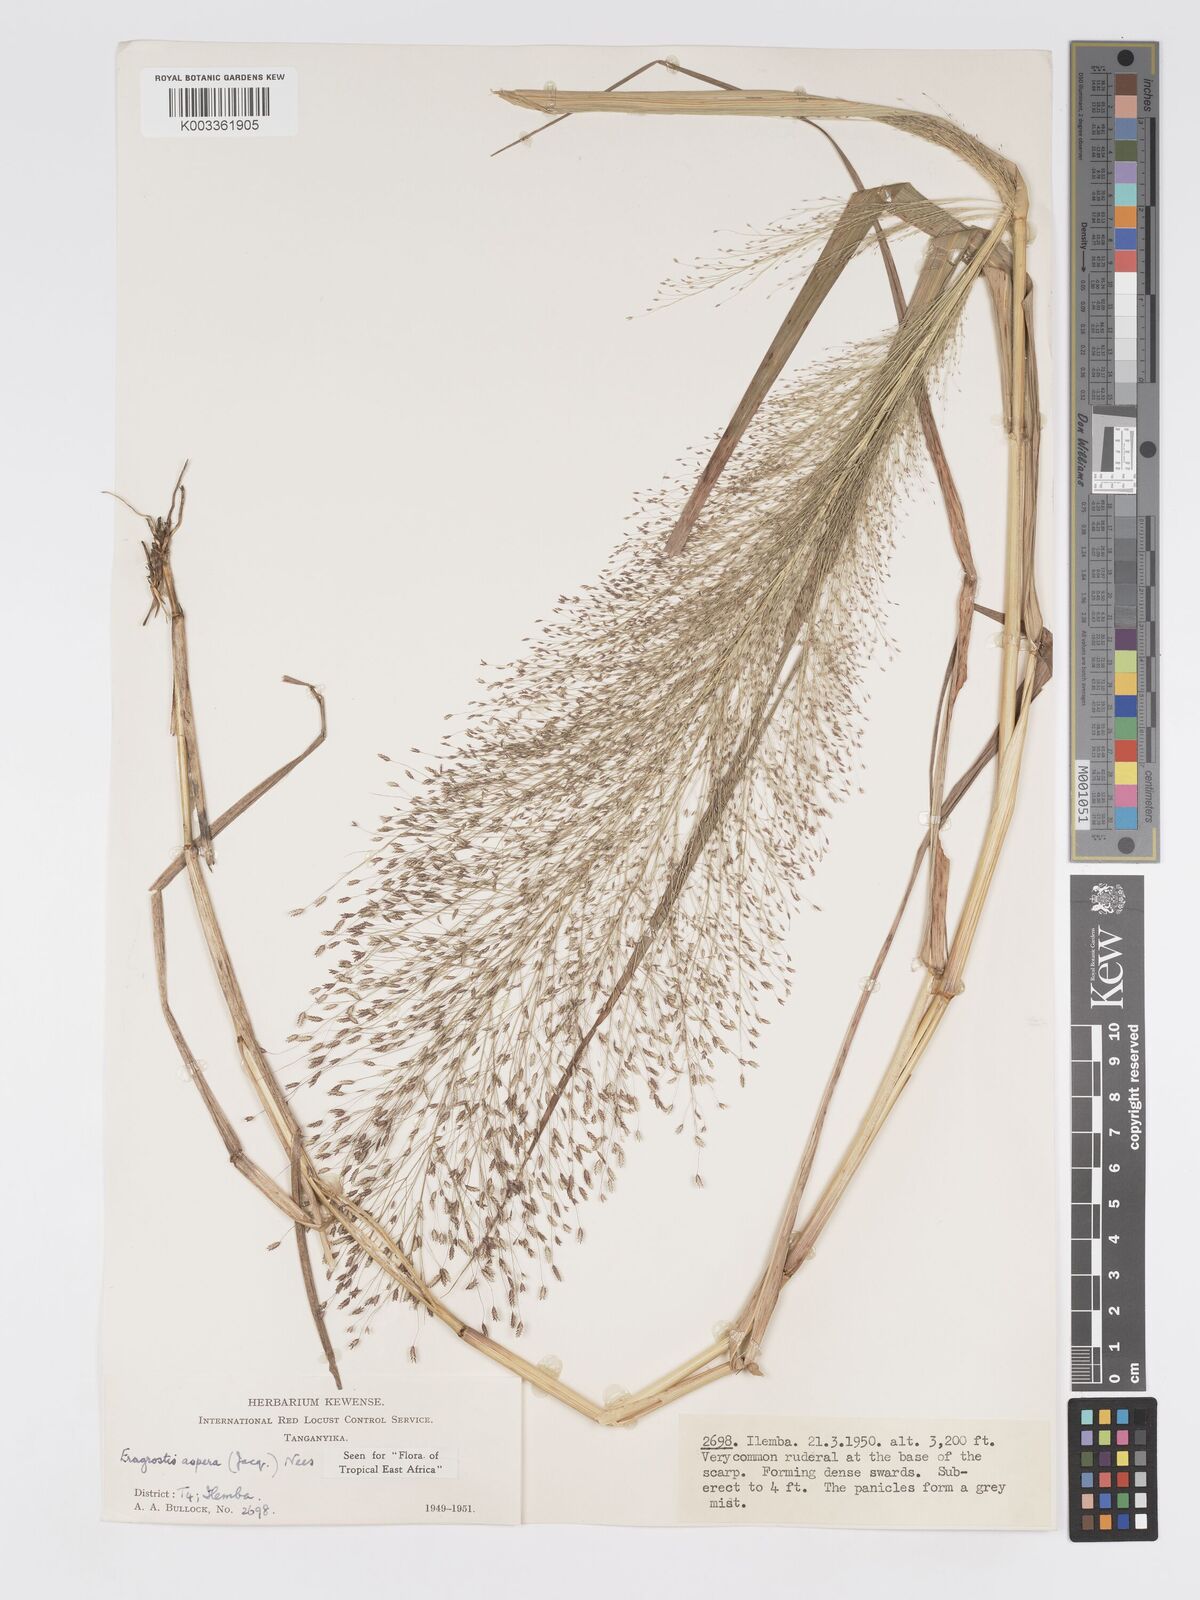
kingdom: Plantae
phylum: Tracheophyta
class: Liliopsida
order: Poales
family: Poaceae
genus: Eragrostis
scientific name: Eragrostis aspera
